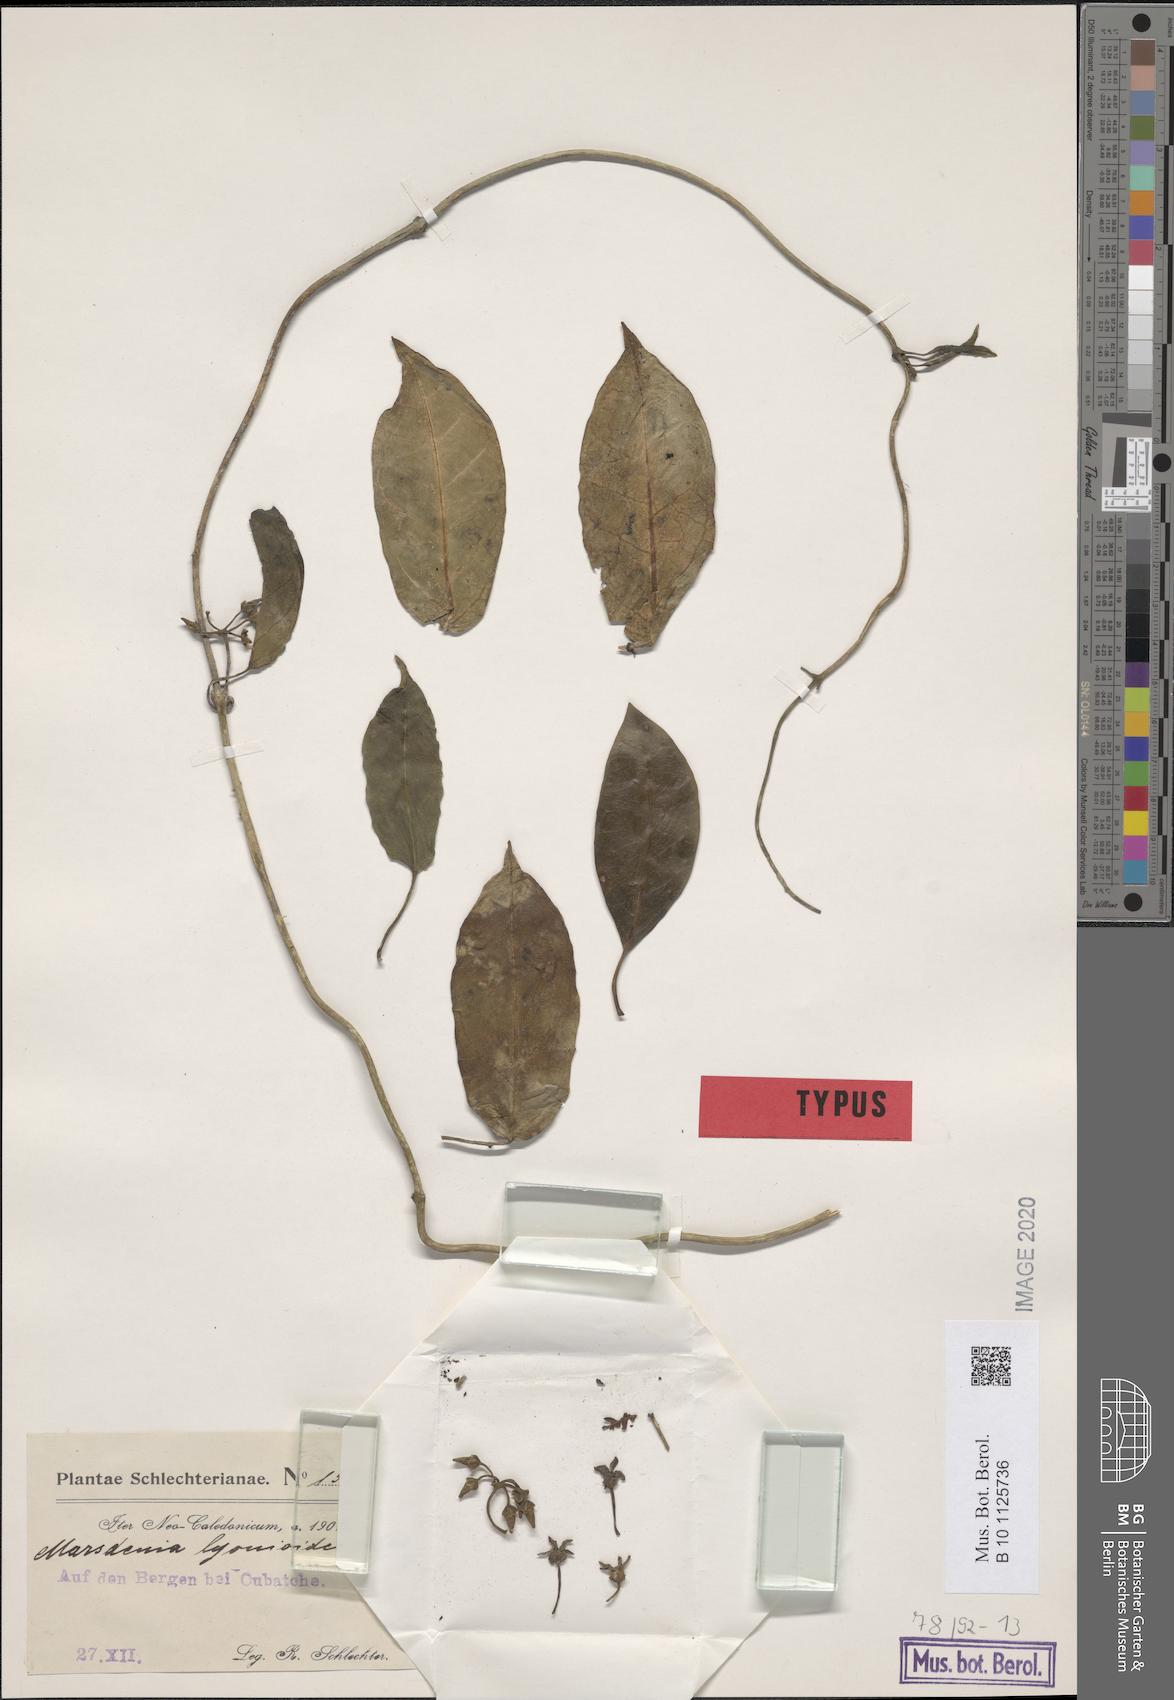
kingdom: Plantae
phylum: Tracheophyta
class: Magnoliopsida
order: Gentianales
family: Apocynaceae
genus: Leichhardtia
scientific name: Leichhardtia lyonsioides
